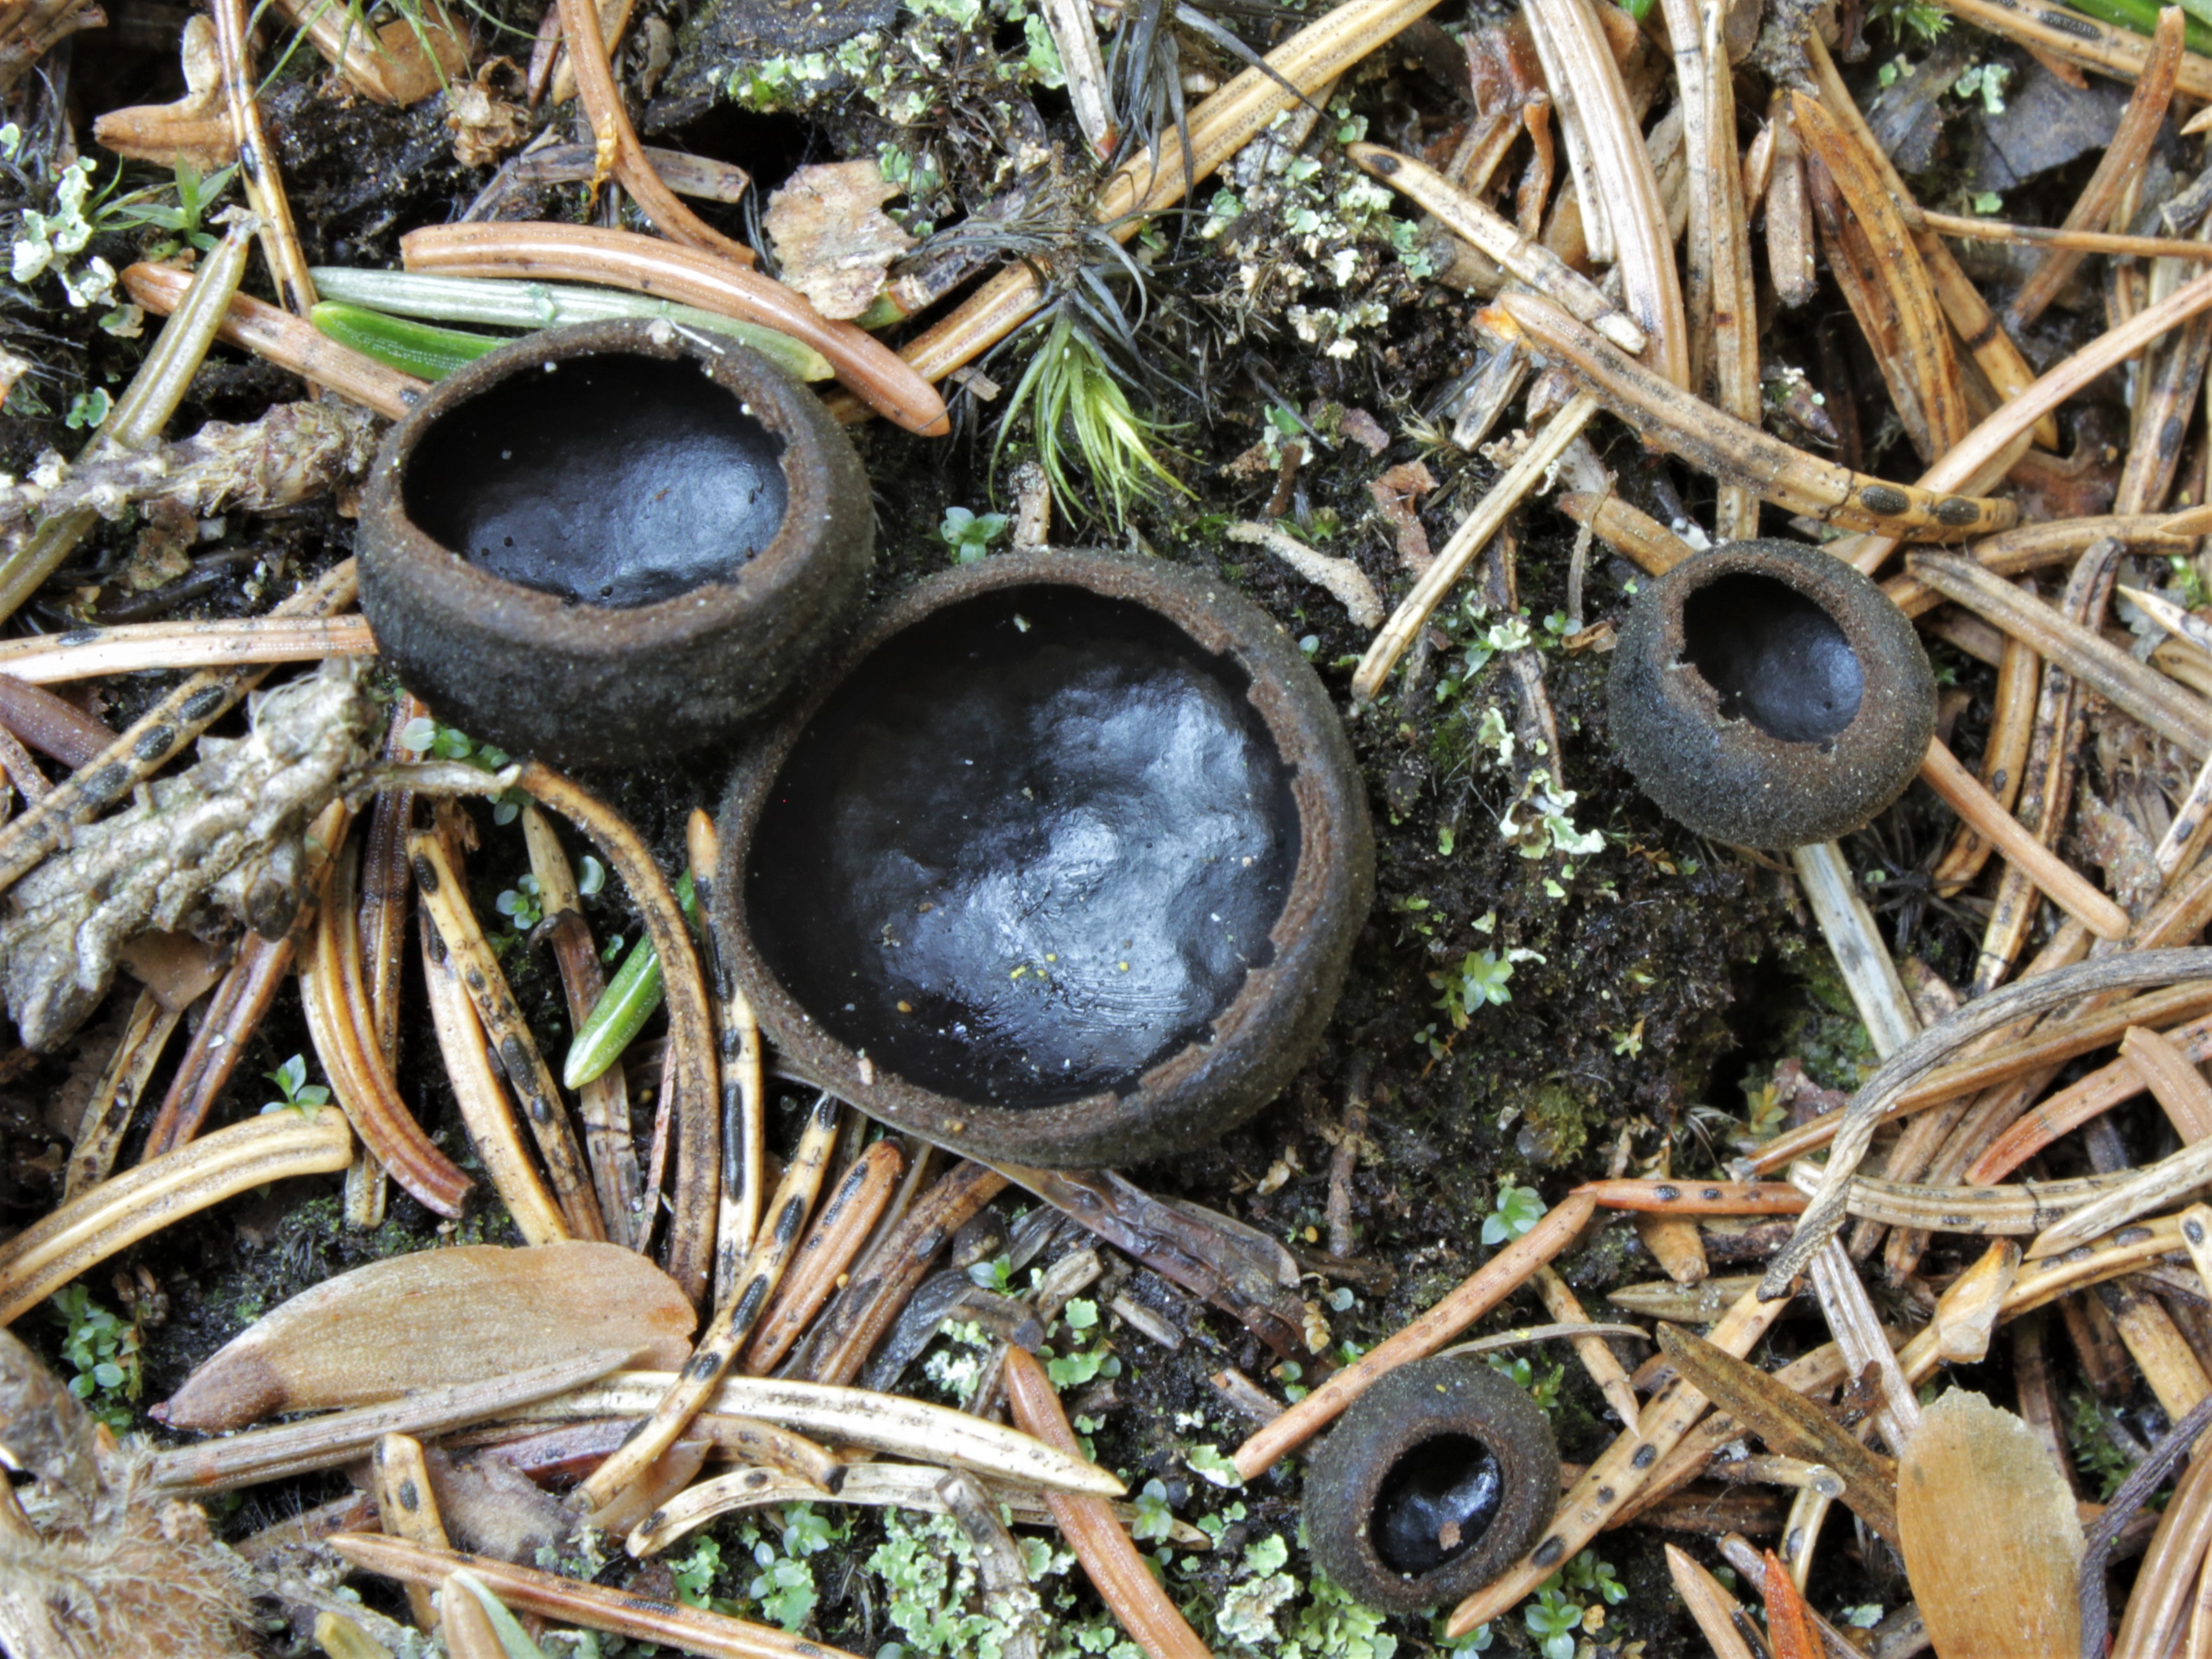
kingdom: Fungi
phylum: Ascomycota
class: Pezizomycetes
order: Pezizales
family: Sarcosomataceae
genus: Pseudoplectania
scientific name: Pseudoplectania nigrella
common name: Ebony cup
